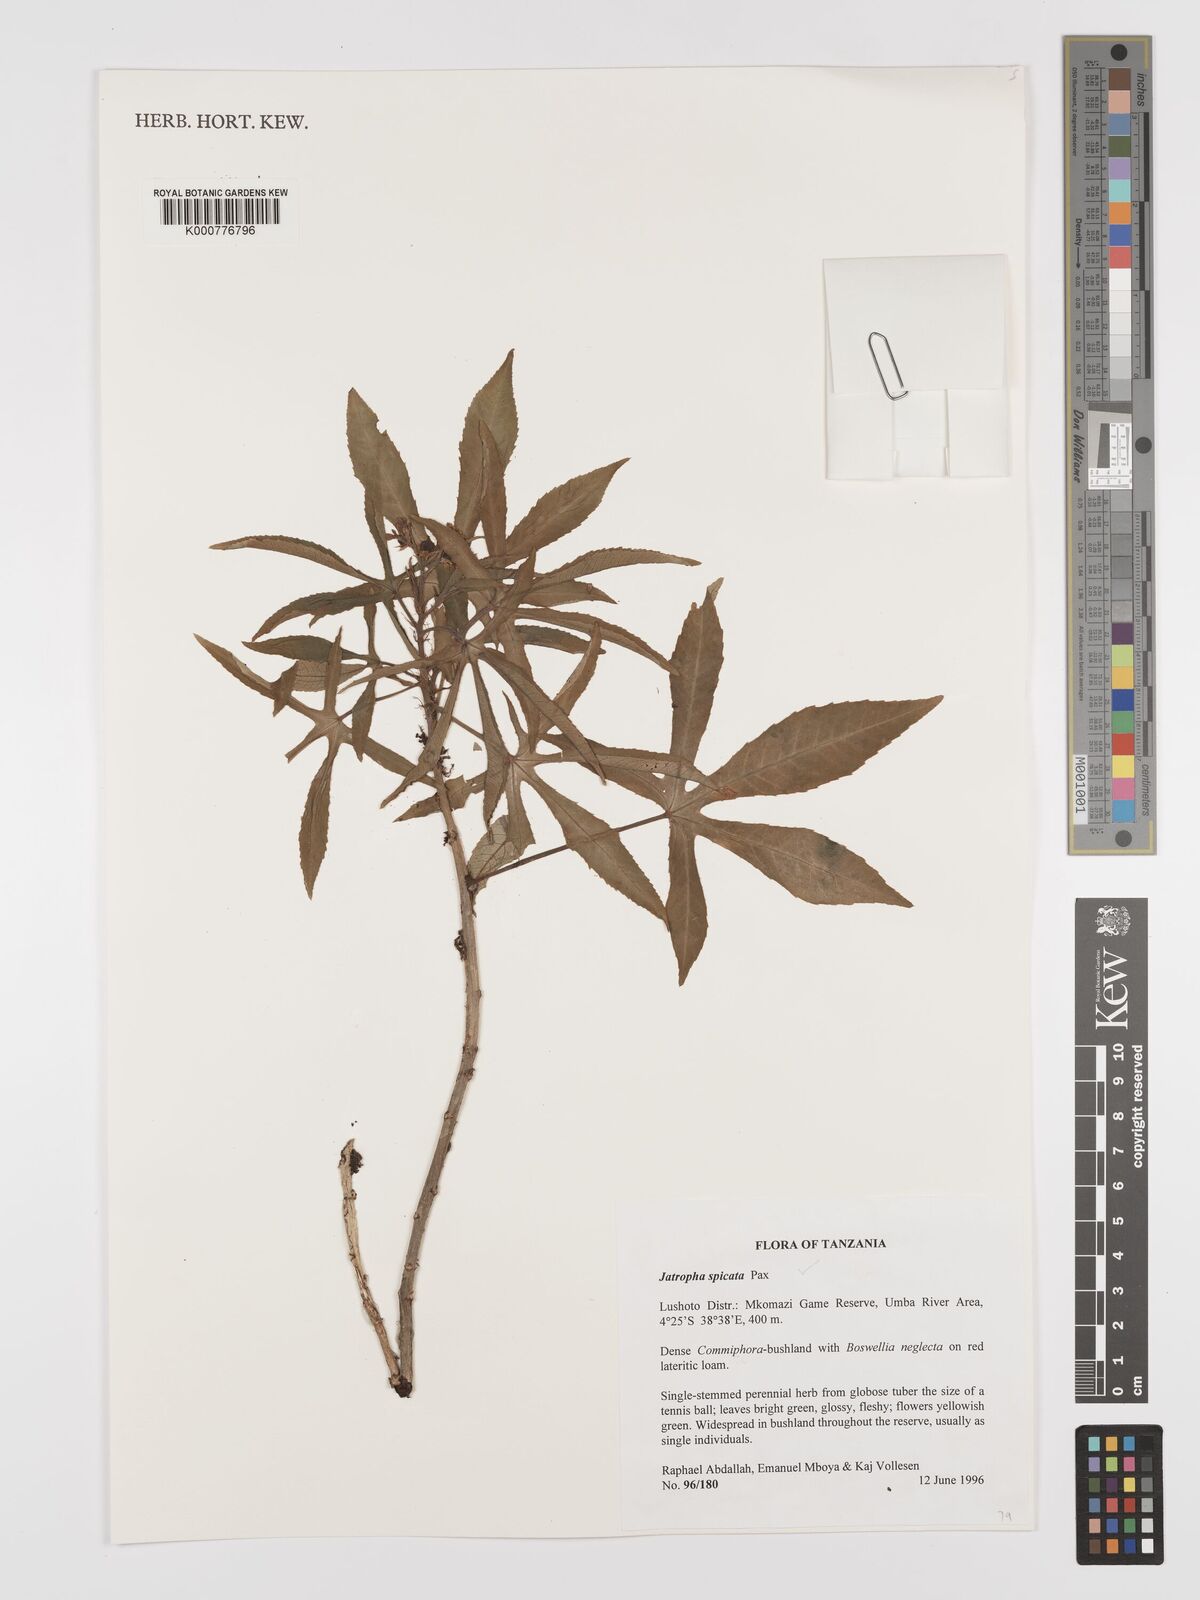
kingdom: Plantae
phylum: Tracheophyta
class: Magnoliopsida
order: Malpighiales
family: Euphorbiaceae
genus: Jatropha
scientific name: Jatropha spicata
